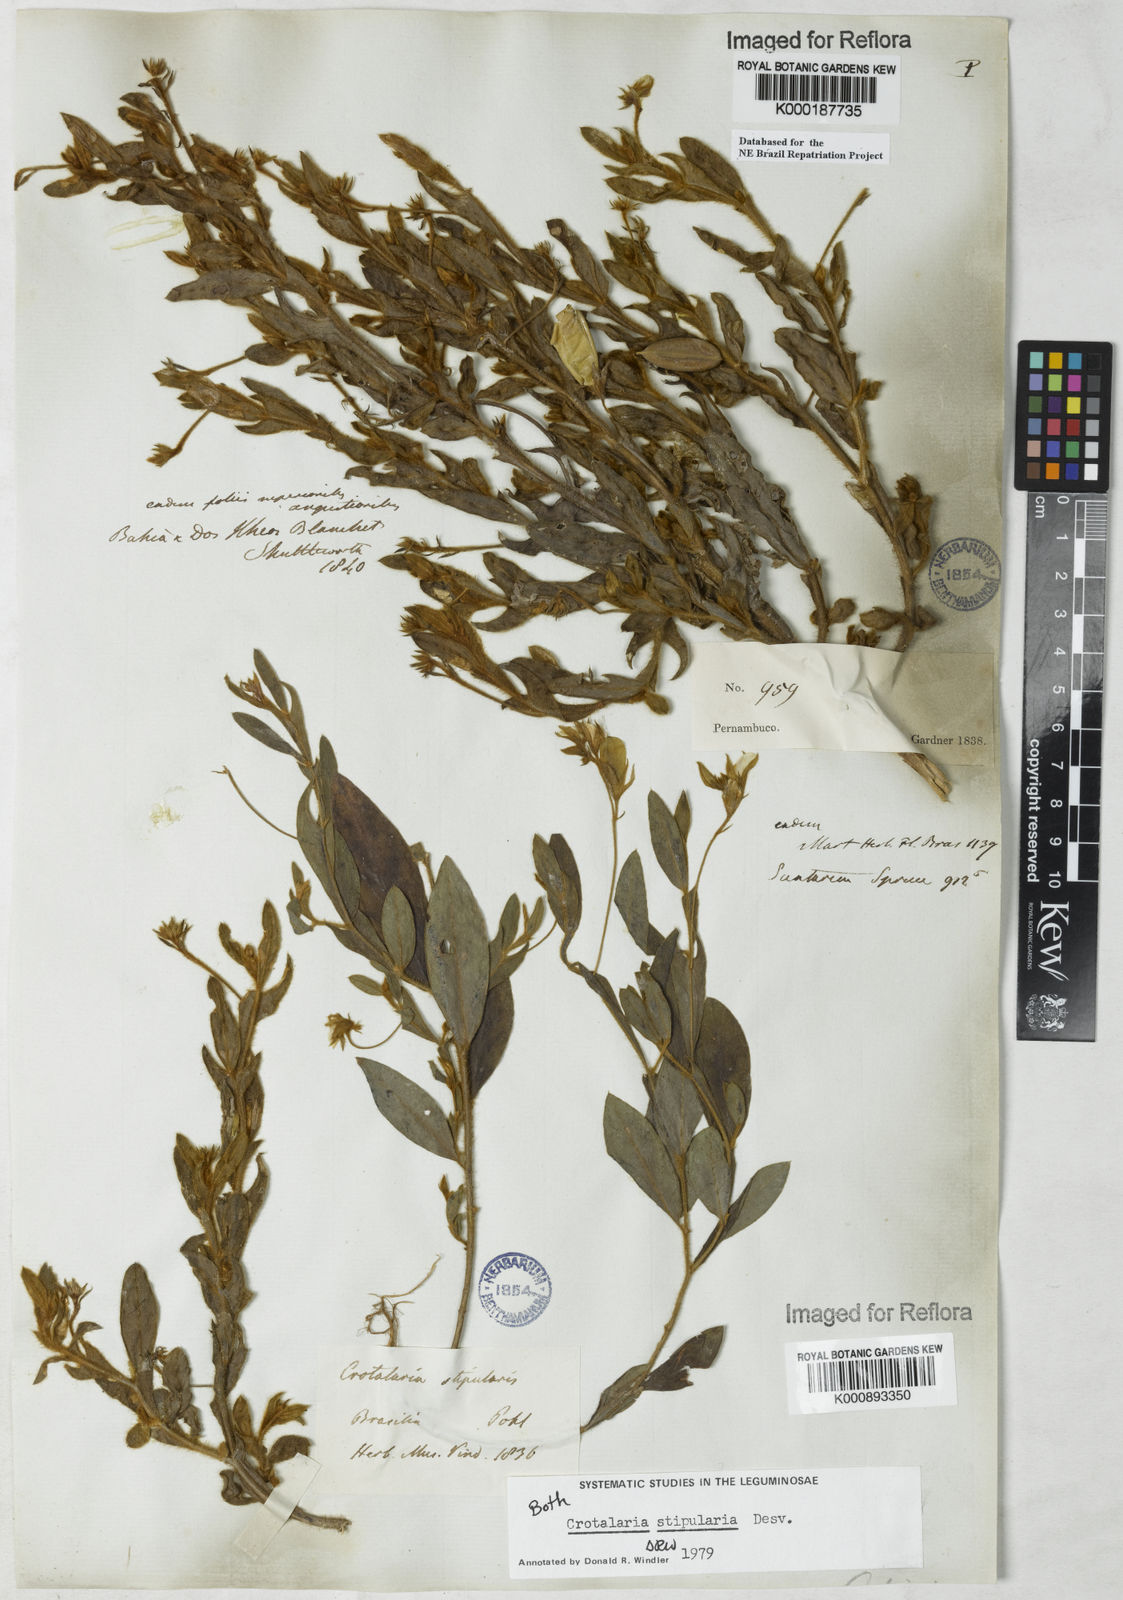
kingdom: Plantae
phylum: Tracheophyta
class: Magnoliopsida
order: Fabales
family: Fabaceae
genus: Crotalaria
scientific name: Crotalaria stipularia
